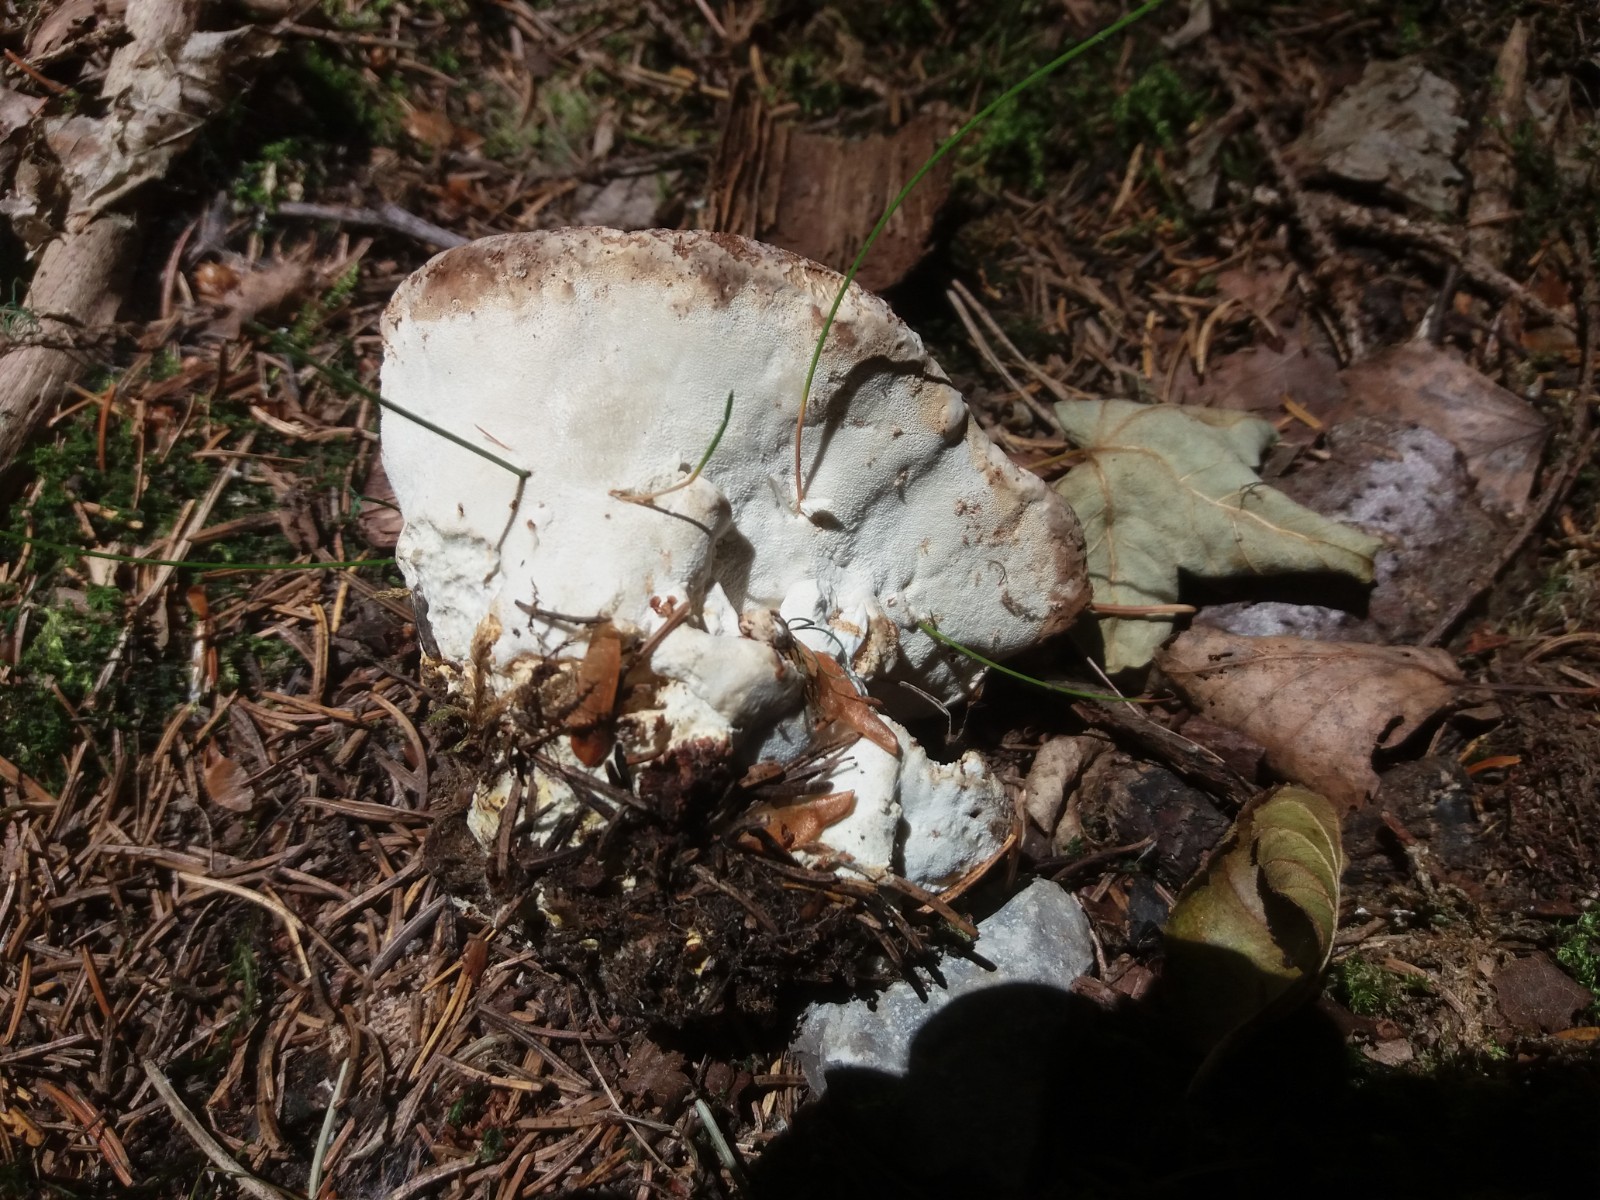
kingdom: Fungi
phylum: Basidiomycota
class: Agaricomycetes
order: Polyporales
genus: Calcipostia
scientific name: Calcipostia guttulata
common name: dråbe-kødporesvamp
